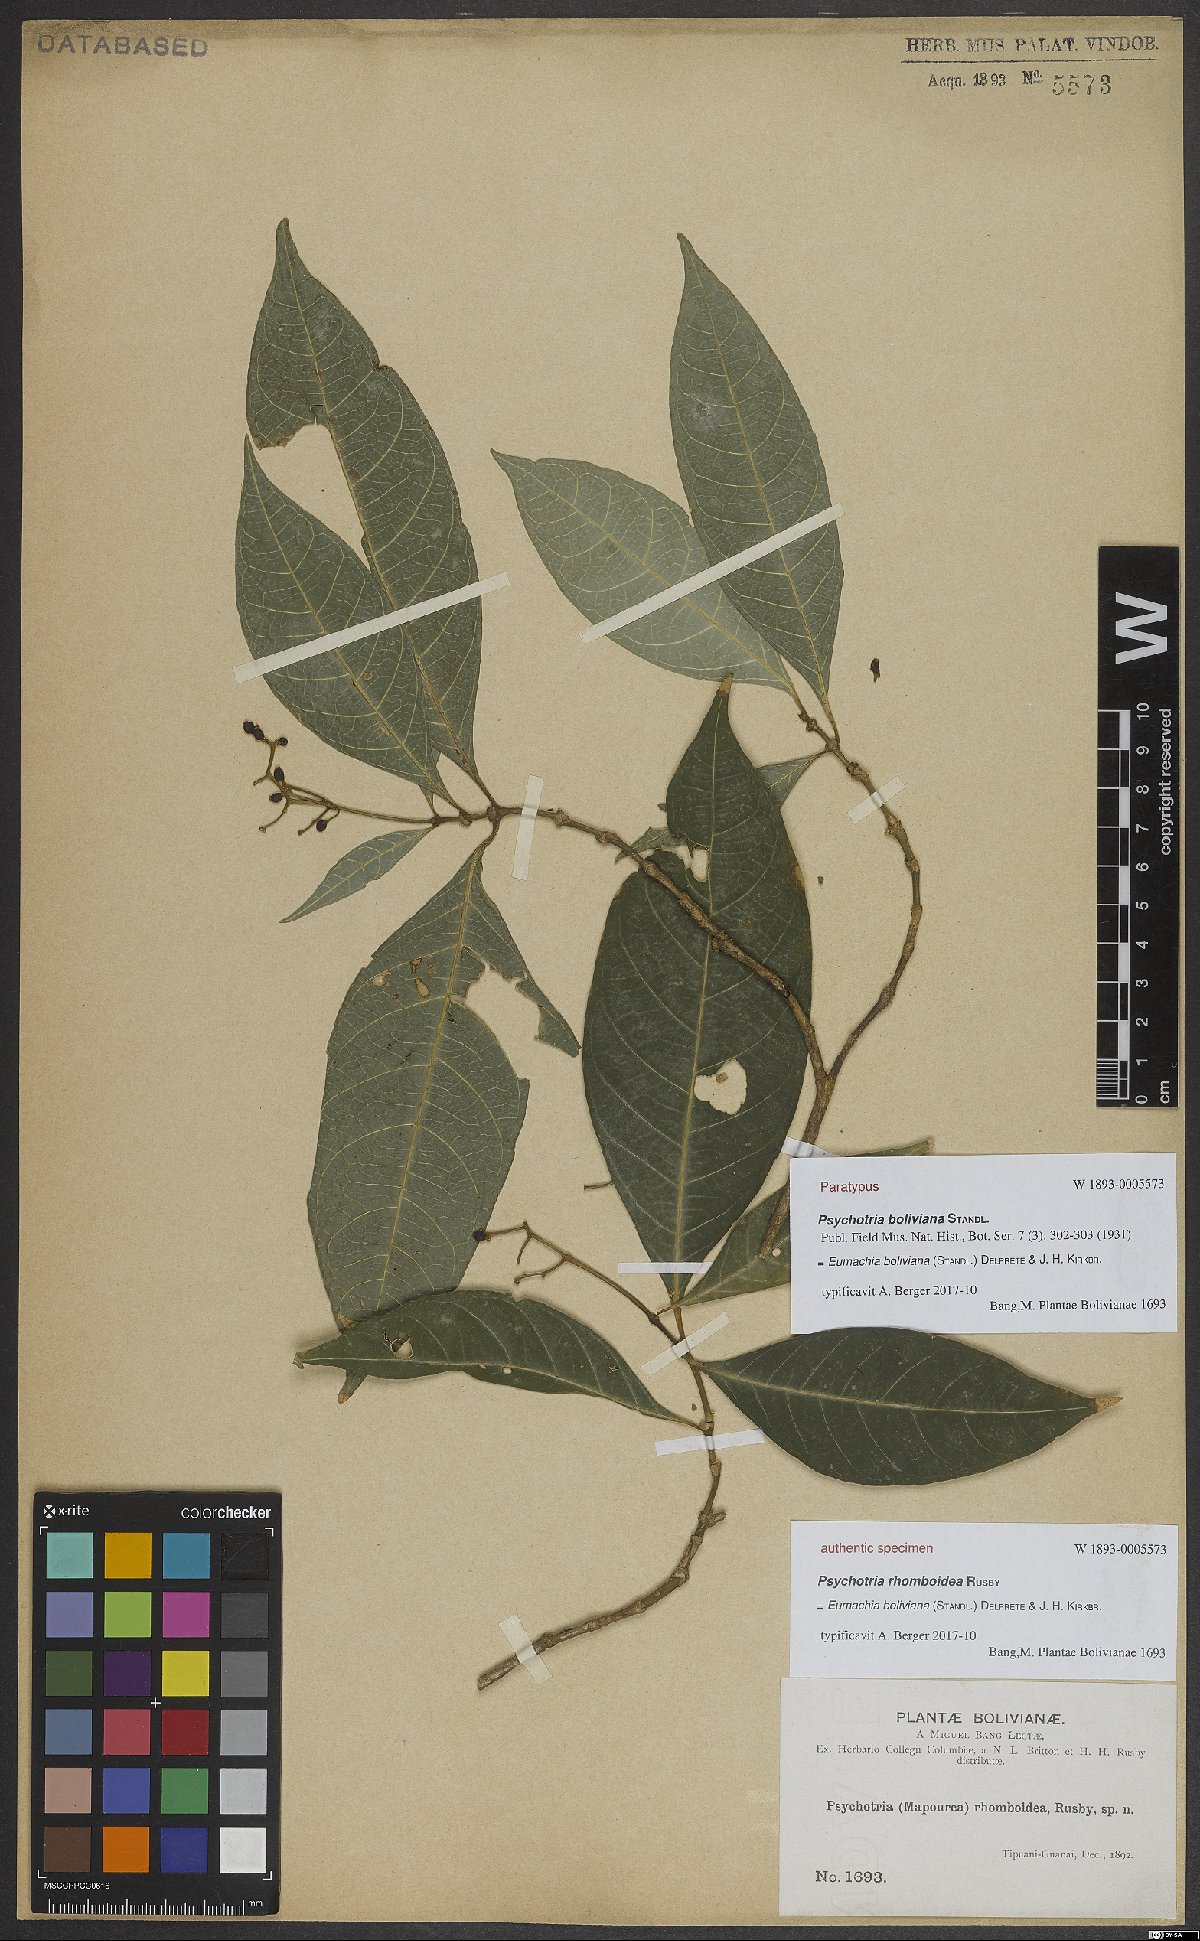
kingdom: Plantae
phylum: Tracheophyta
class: Magnoliopsida
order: Gentianales
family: Rubiaceae
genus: Eumachia
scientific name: Eumachia boliviana
